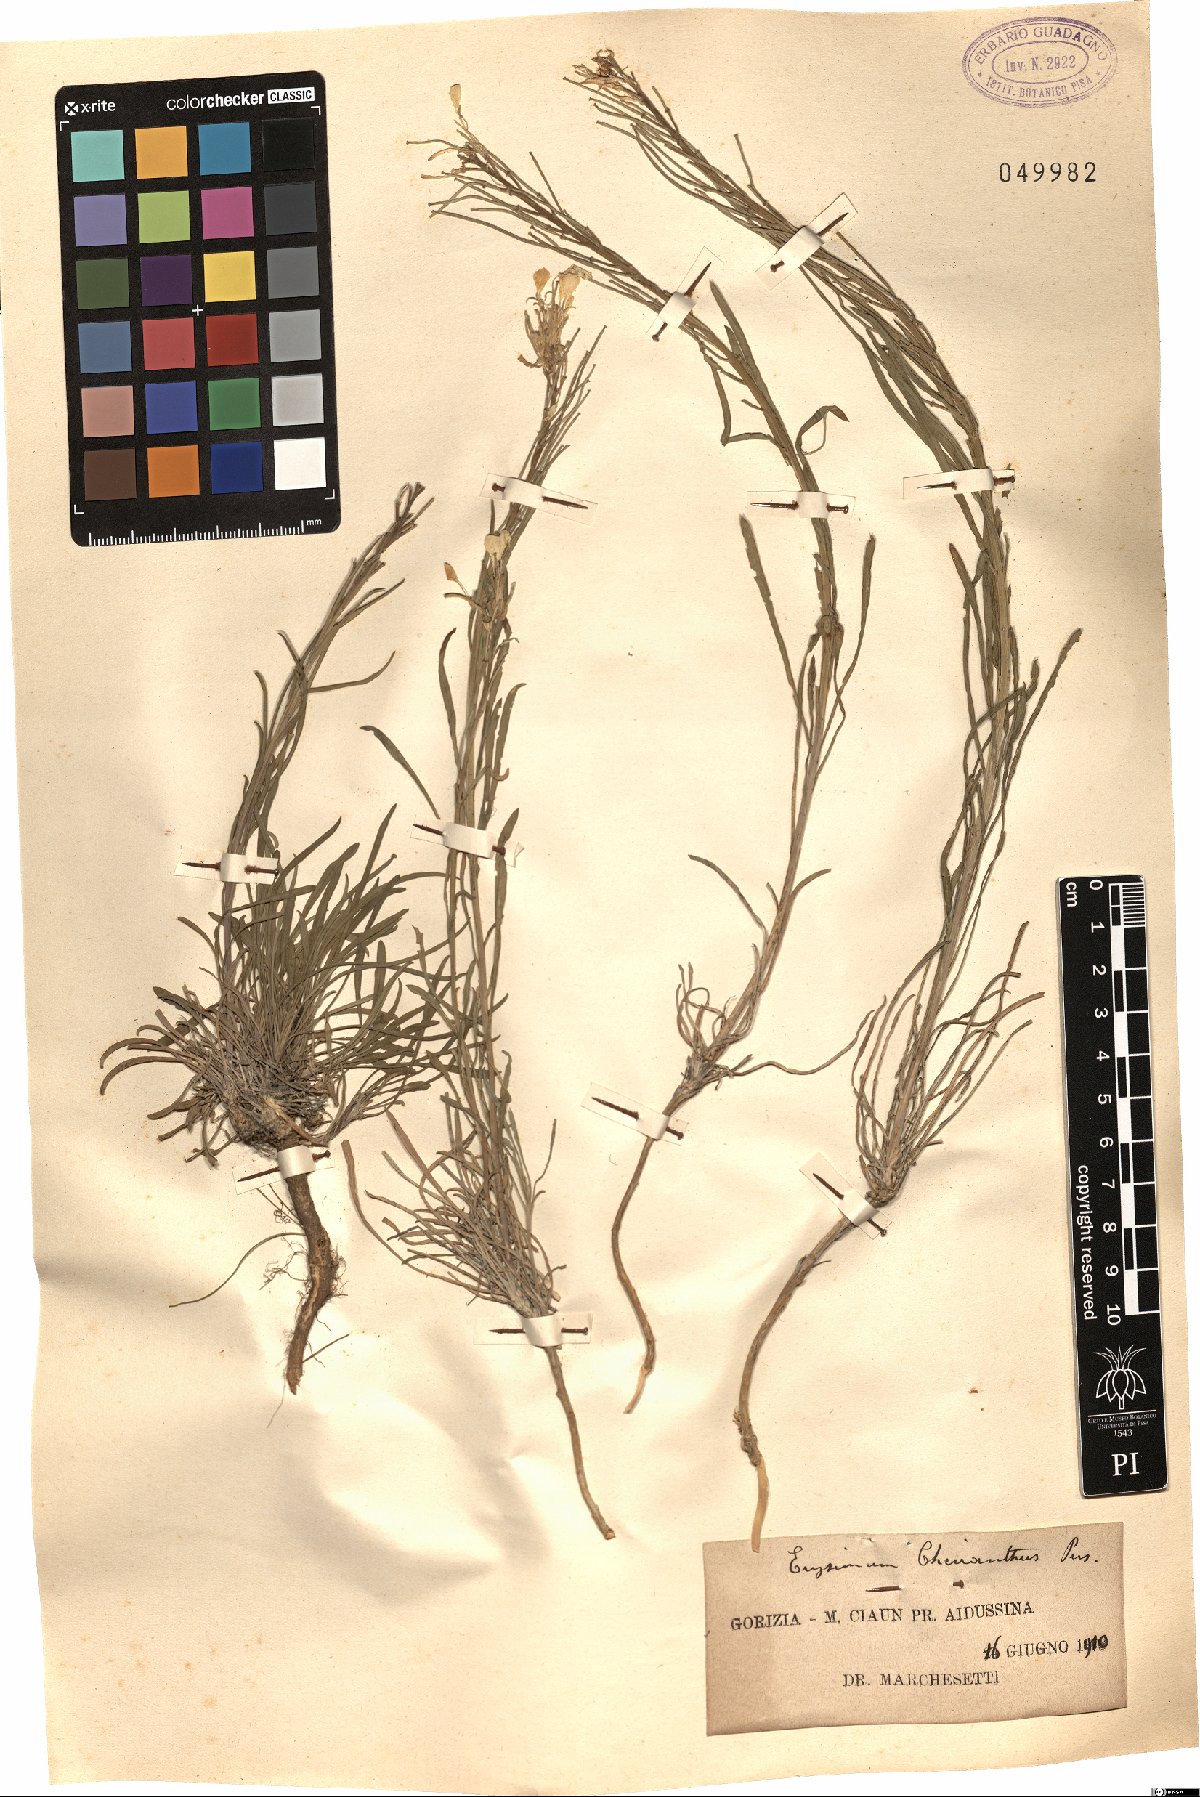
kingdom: Plantae
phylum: Tracheophyta
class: Magnoliopsida
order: Brassicales
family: Brassicaceae
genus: Erysimum
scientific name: Erysimum sylvestre
